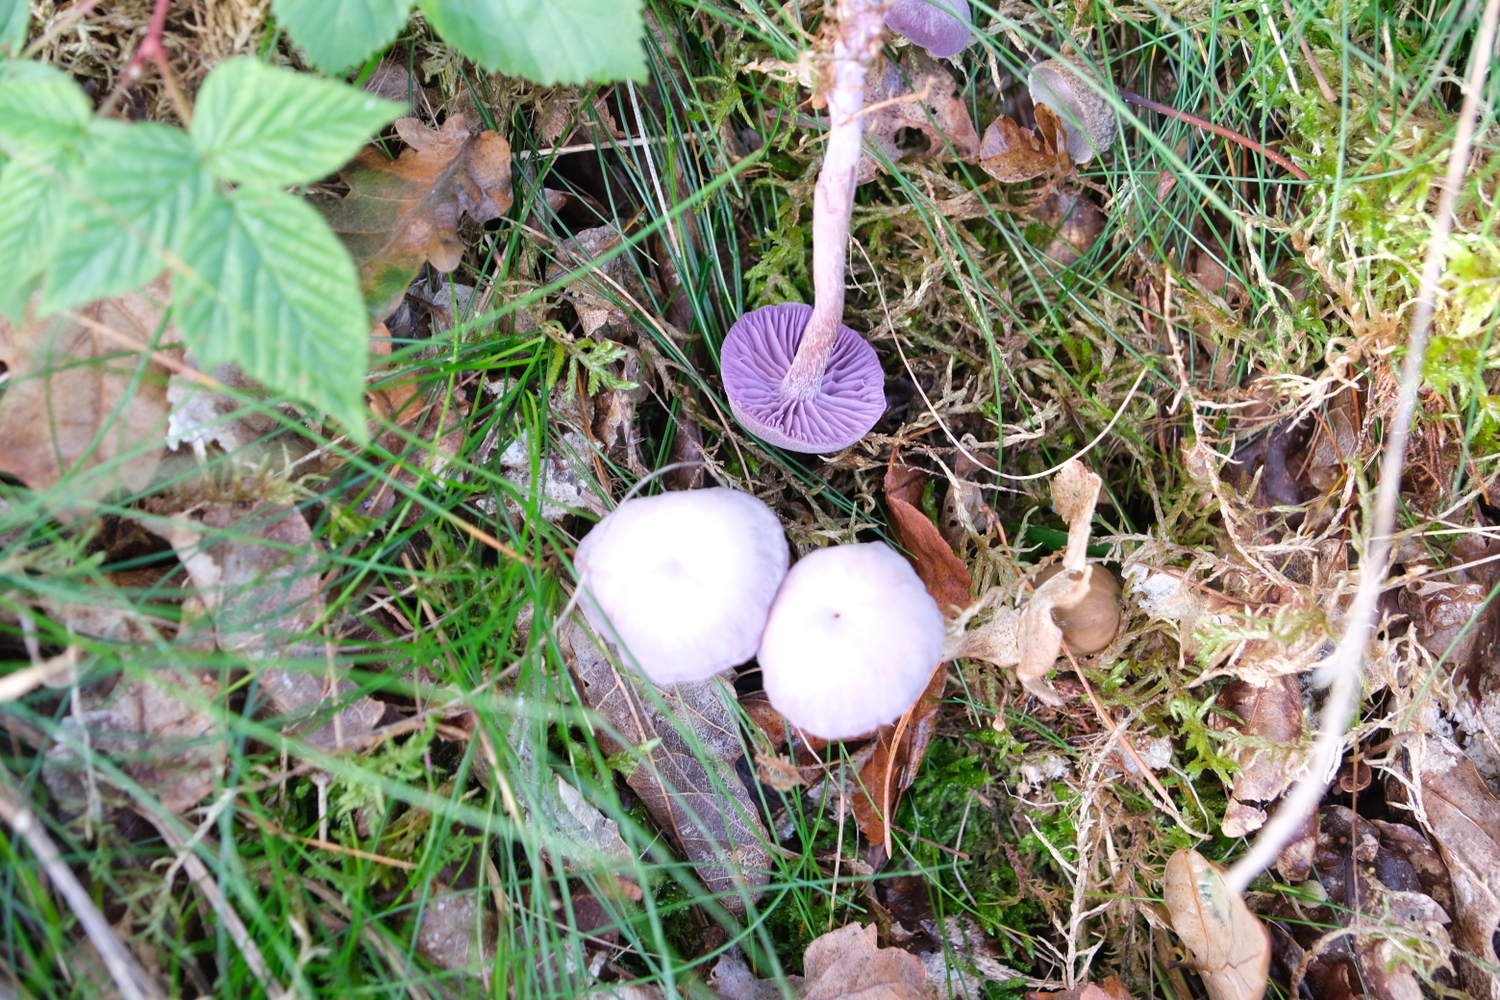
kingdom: Fungi
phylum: Basidiomycota
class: Agaricomycetes
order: Agaricales
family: Hydnangiaceae
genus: Laccaria
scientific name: Laccaria amethystina
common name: violet ametysthat
